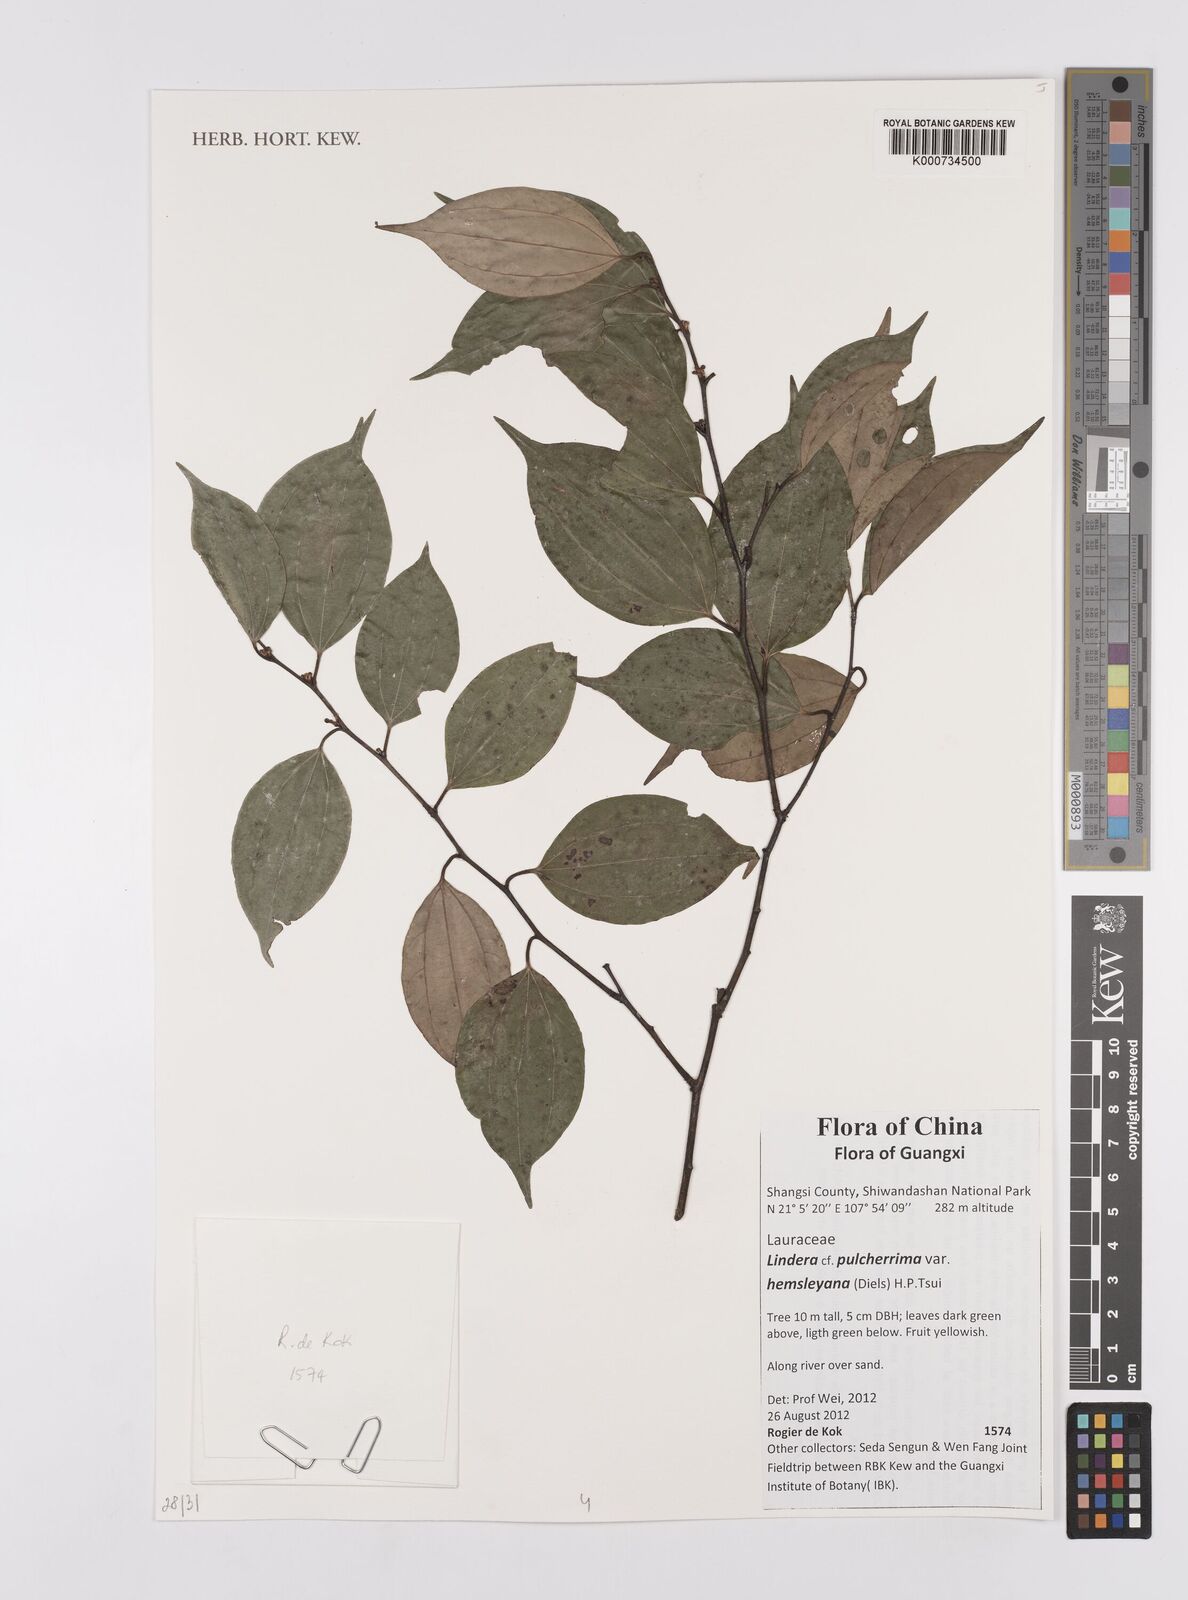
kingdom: Plantae
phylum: Tracheophyta
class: Magnoliopsida
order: Laurales
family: Lauraceae
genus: Lindera
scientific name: Lindera pulcherrima
